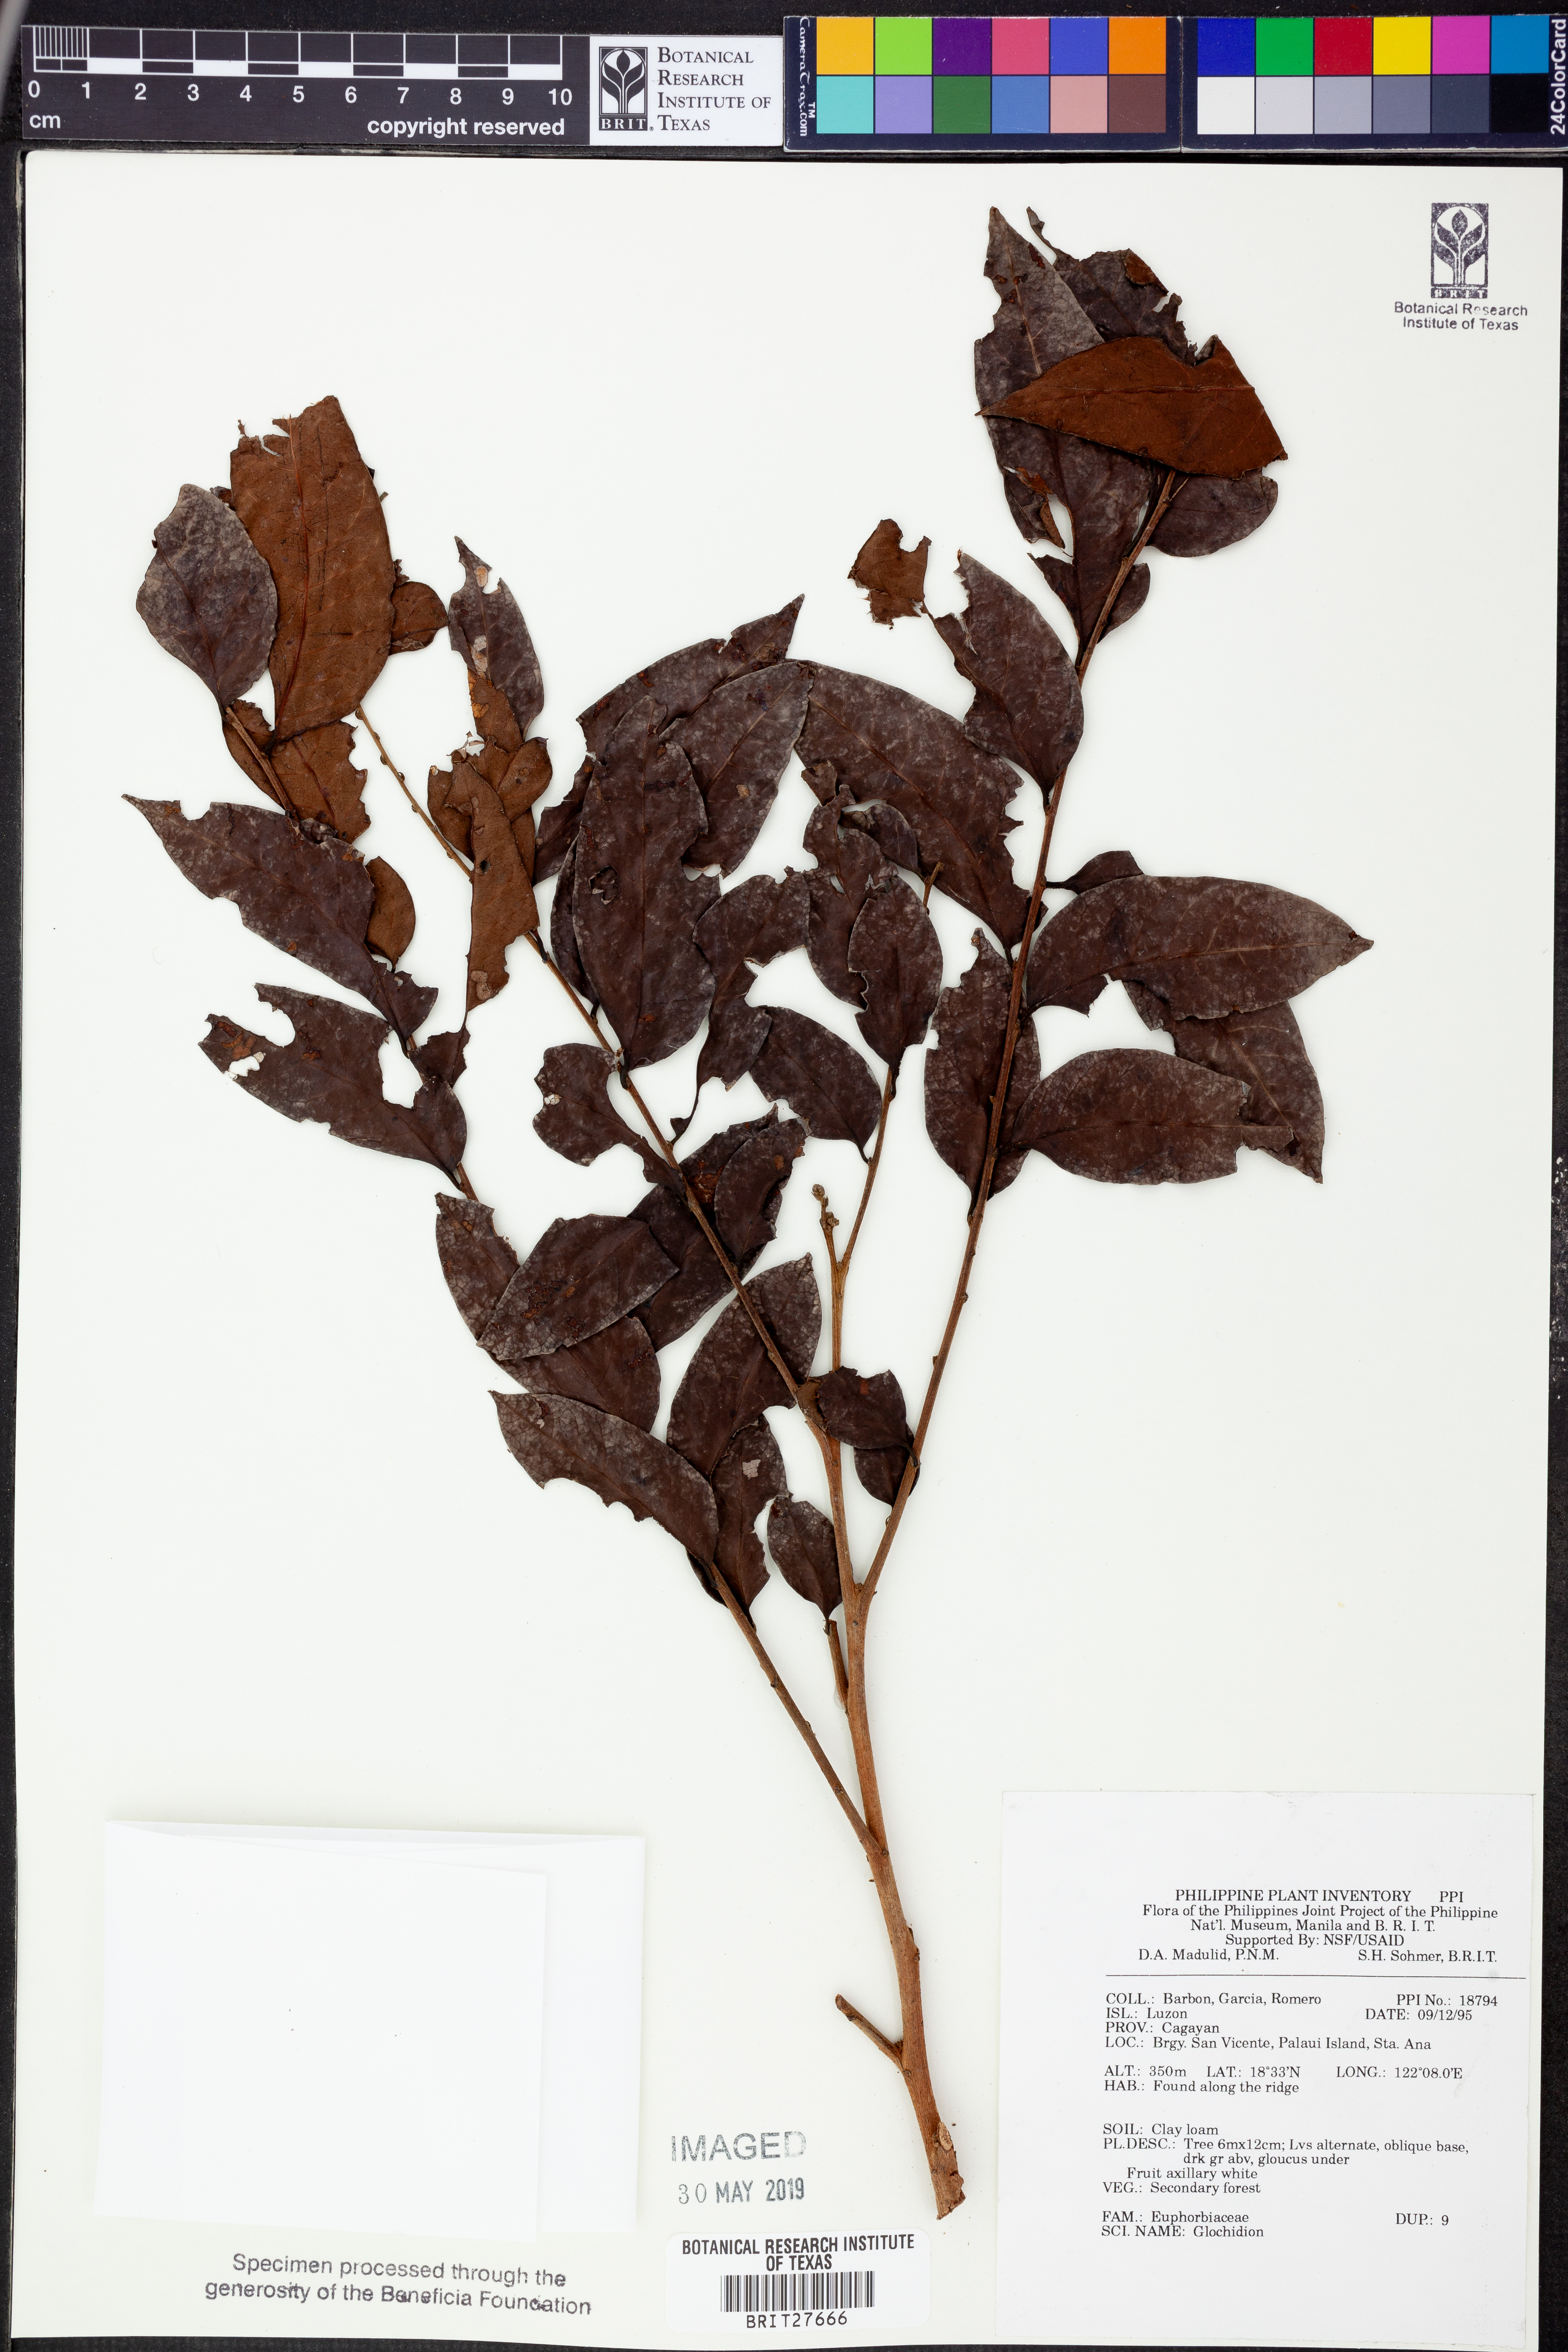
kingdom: Plantae
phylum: Tracheophyta
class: Magnoliopsida
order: Malpighiales
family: Phyllanthaceae
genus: Glochidion
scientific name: Glochidion
